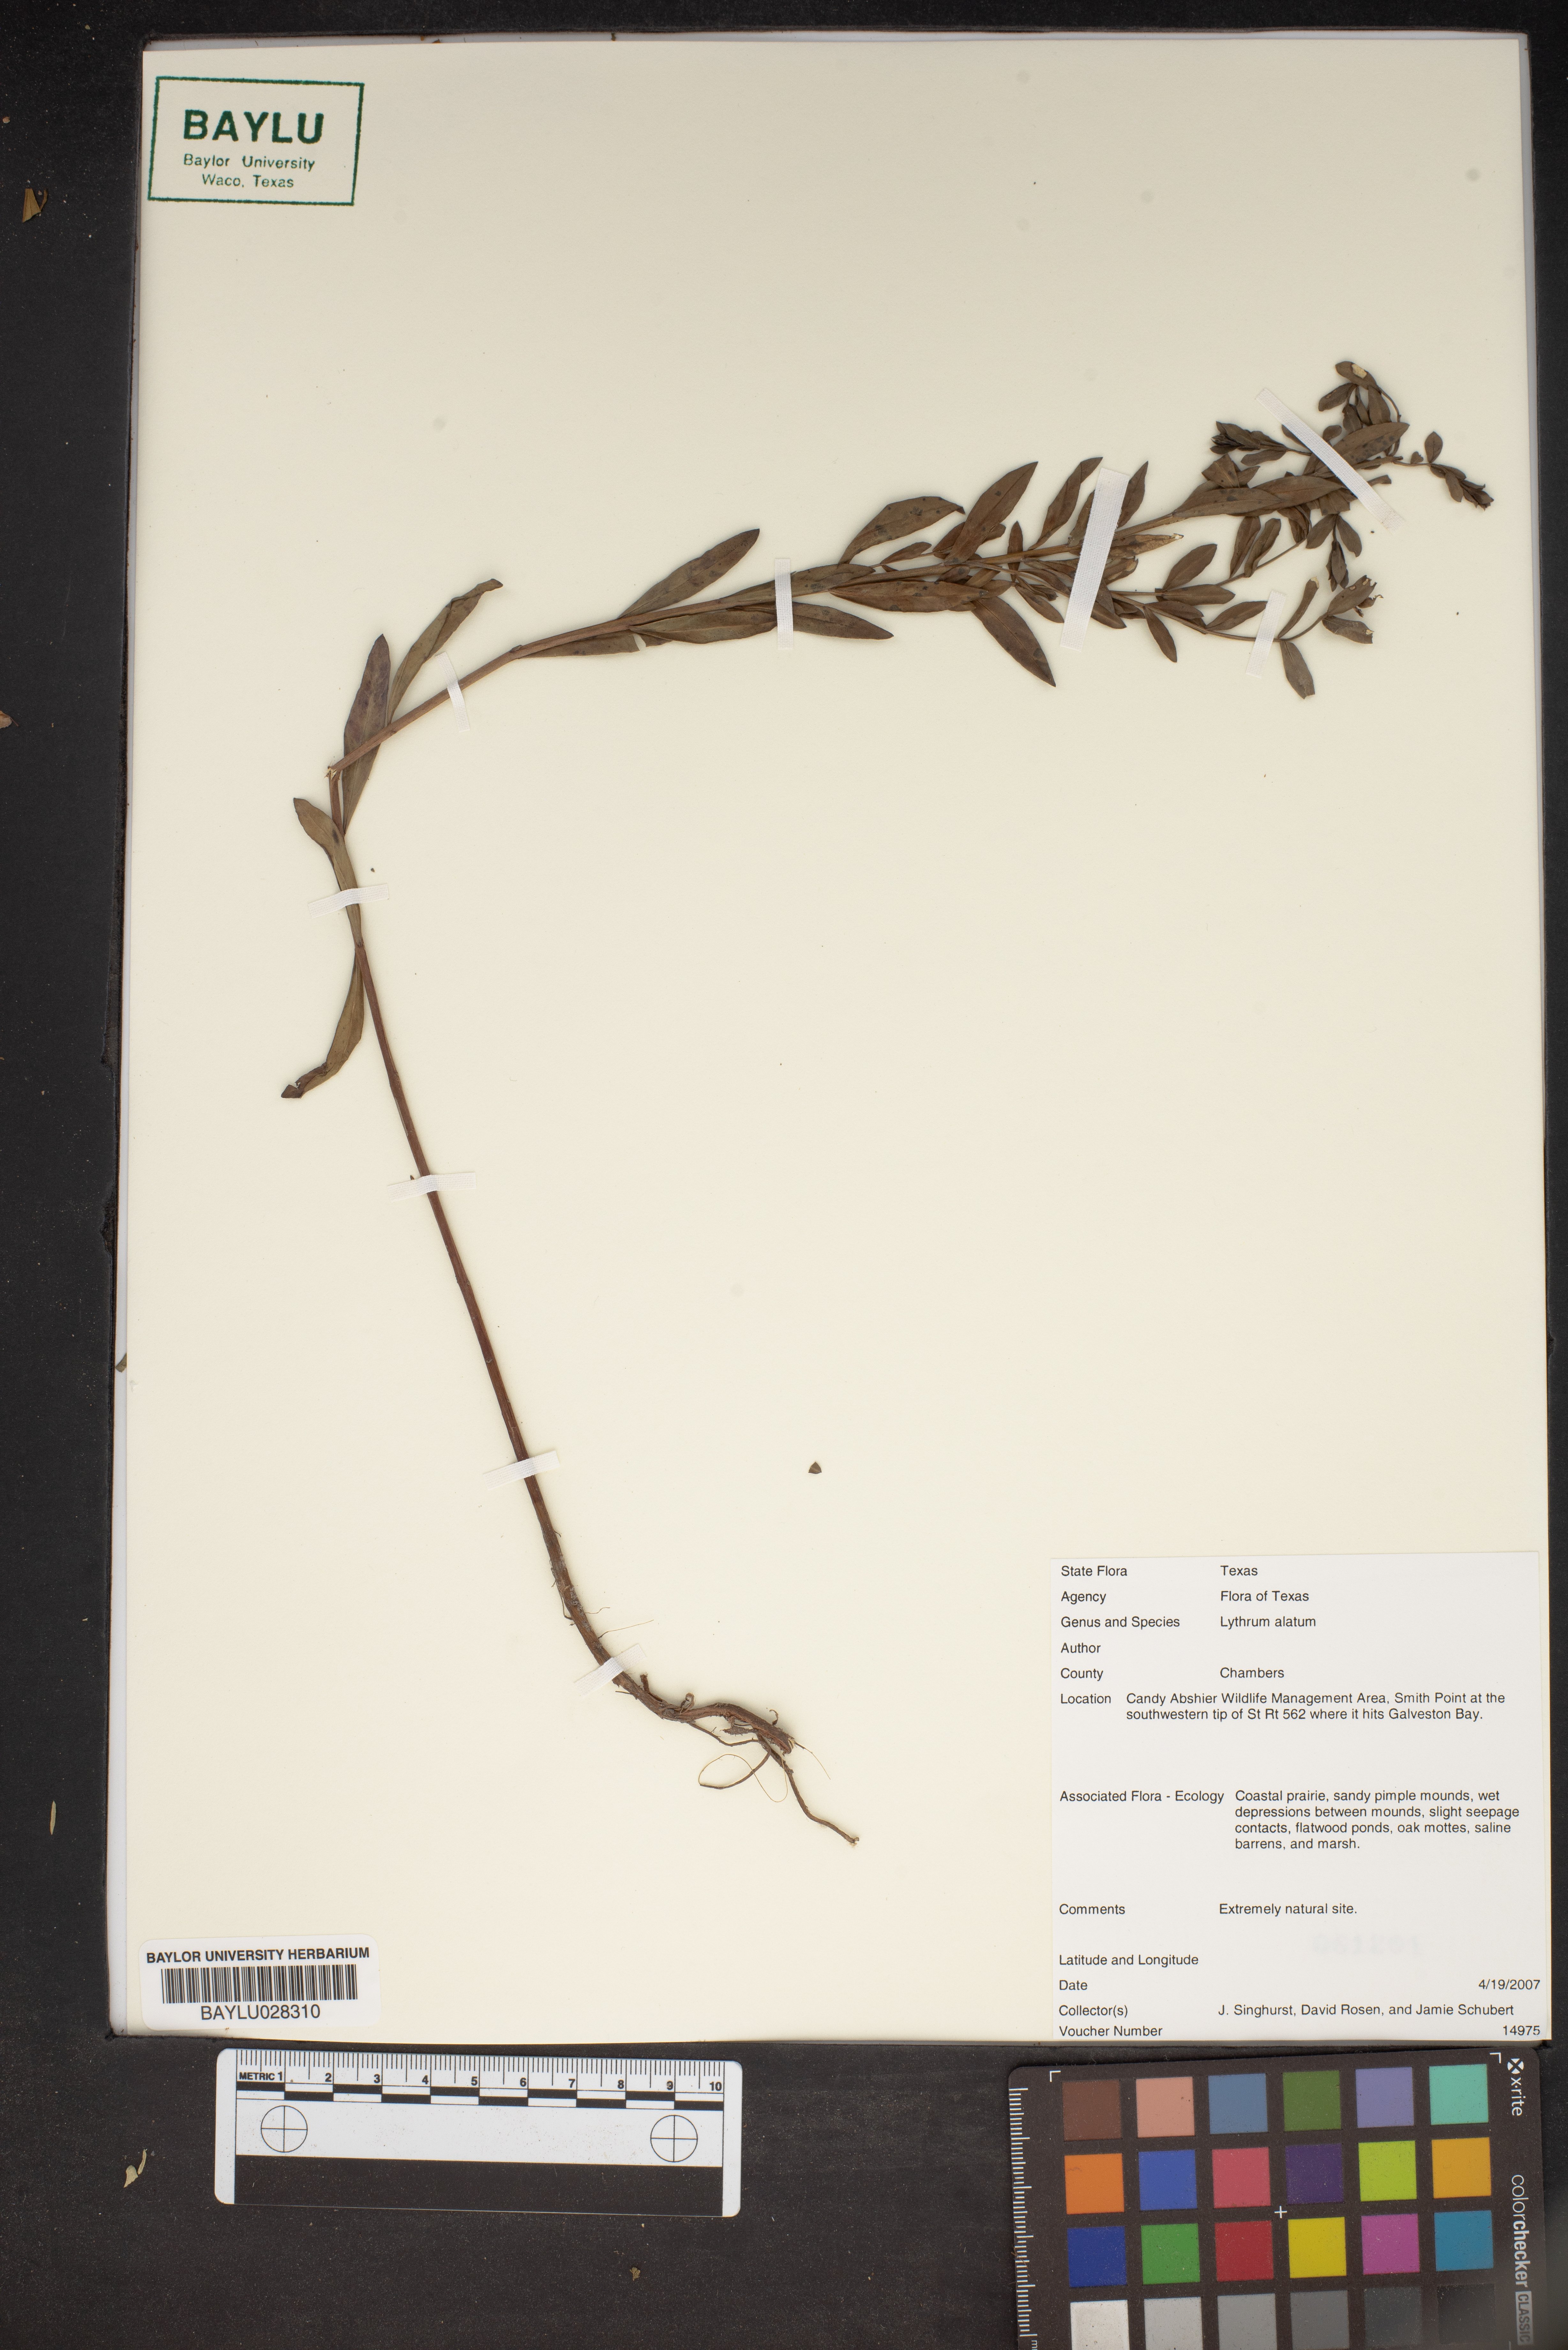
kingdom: Plantae
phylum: Tracheophyta
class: Magnoliopsida
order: Myrtales
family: Lythraceae
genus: Lythrum
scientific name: Lythrum alatum
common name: Winged loosestrife
